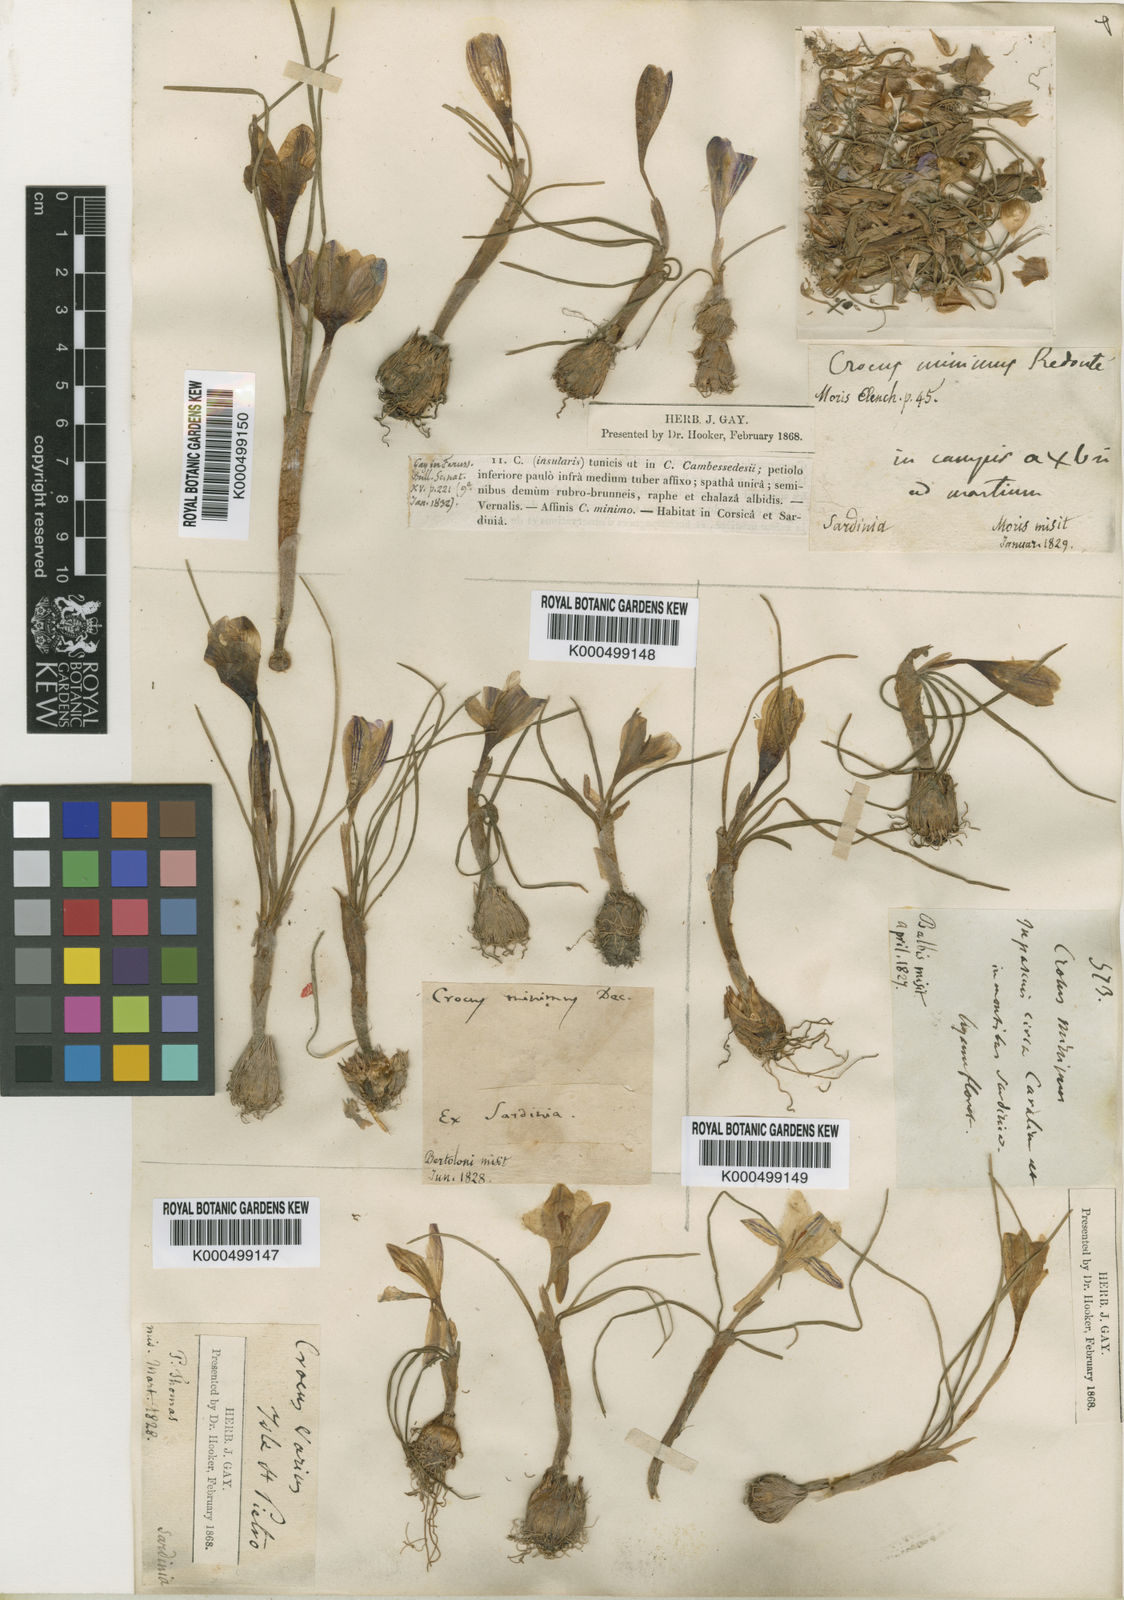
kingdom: Plantae
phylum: Tracheophyta
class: Liliopsida
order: Asparagales
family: Iridaceae
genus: Crocus
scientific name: Crocus biflorus
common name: Silvery crocus
